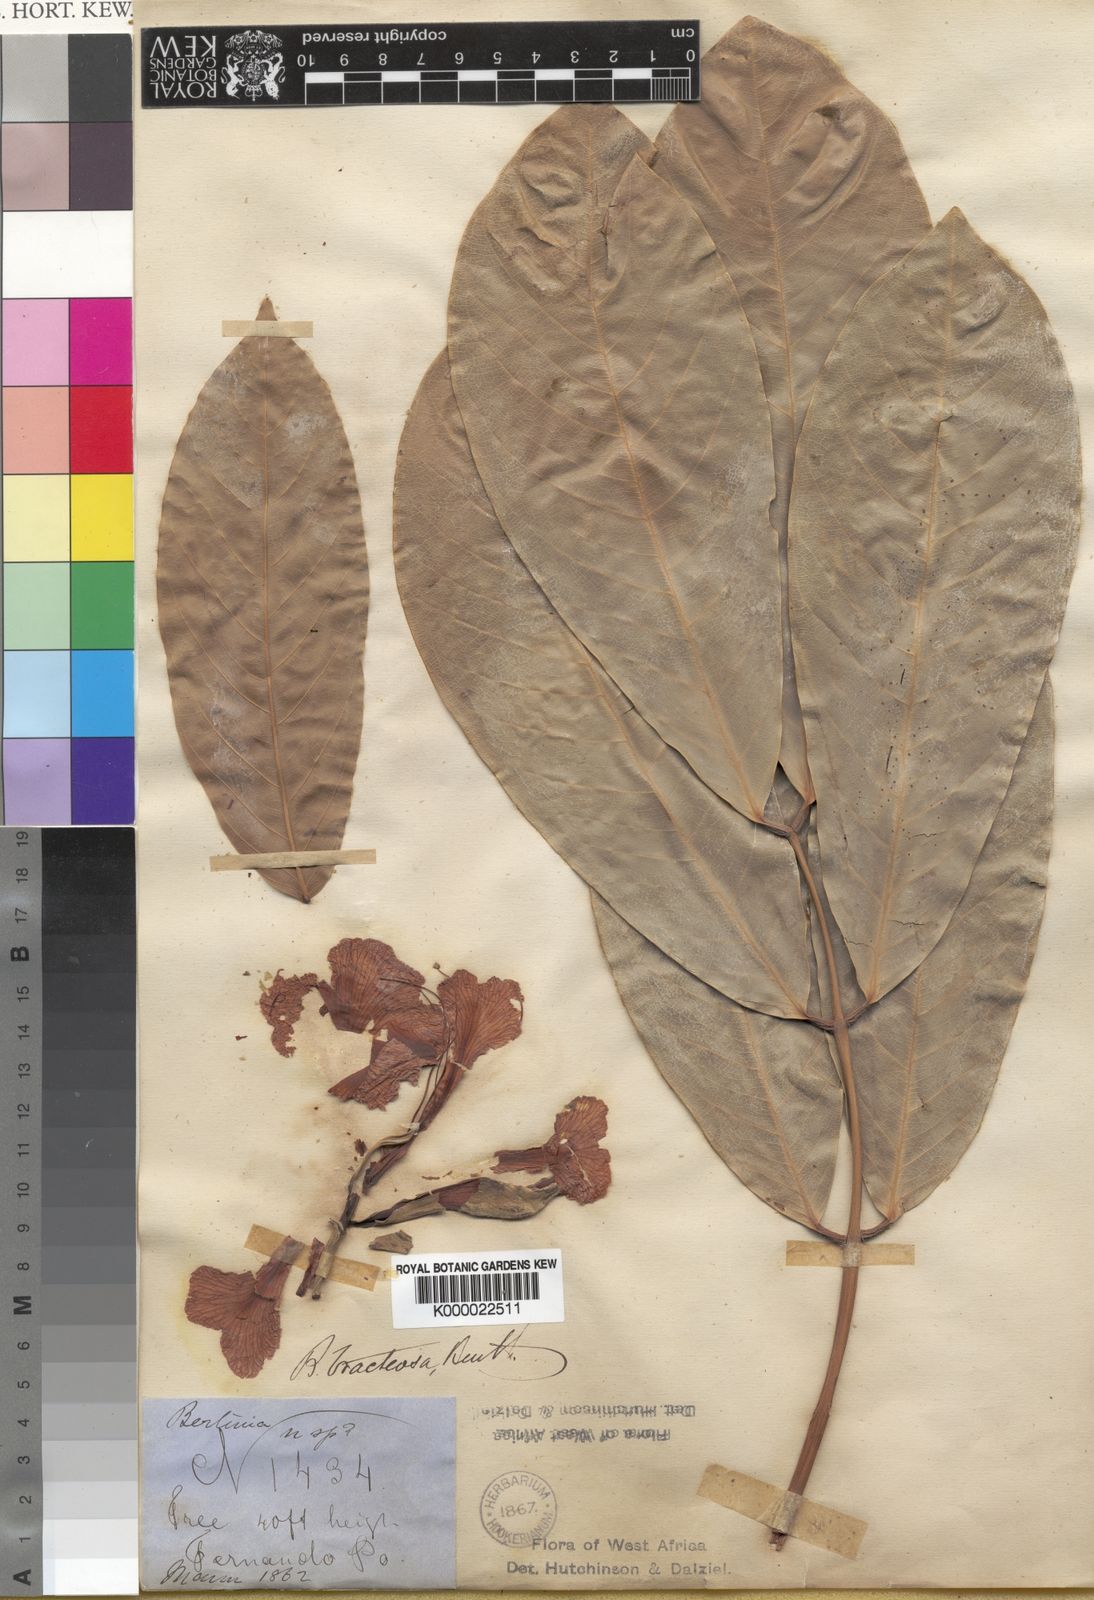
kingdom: Plantae
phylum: Tracheophyta
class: Magnoliopsida
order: Fabales
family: Fabaceae
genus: Berlinia
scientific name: Berlinia bracteosa
